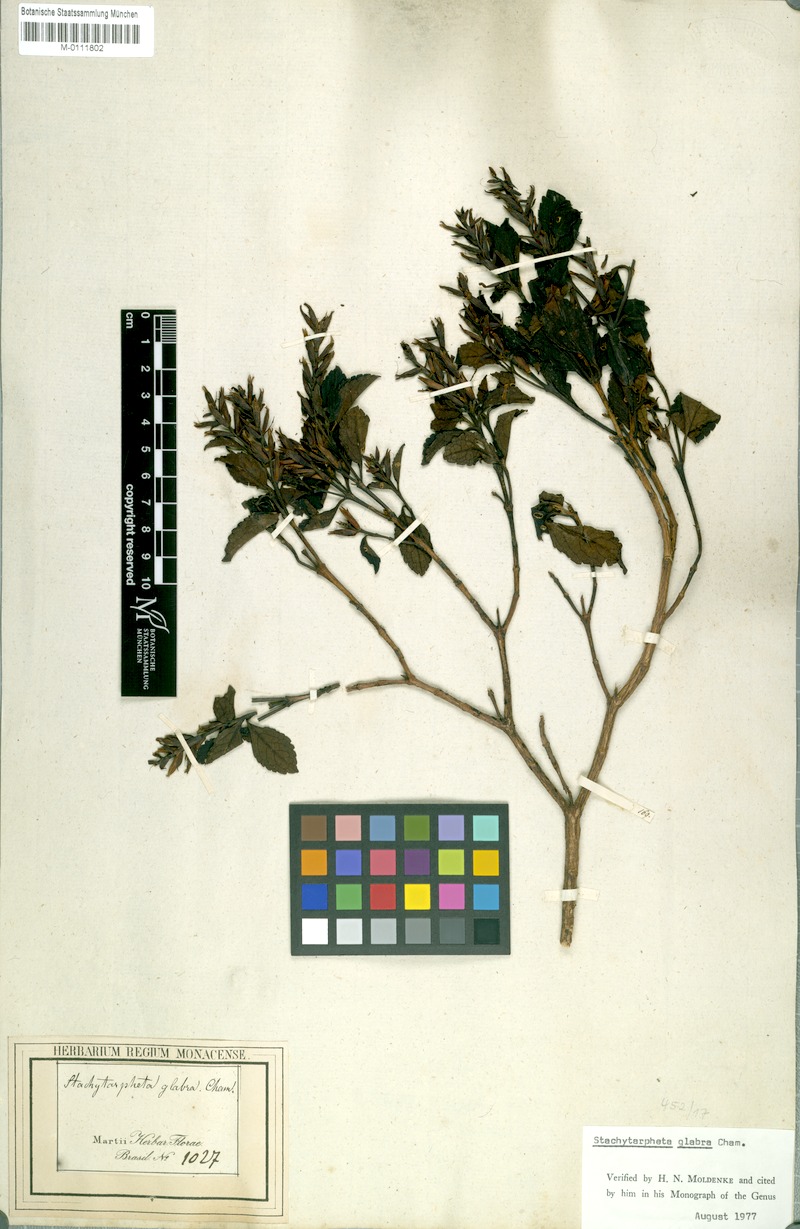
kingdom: Plantae
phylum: Tracheophyta
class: Magnoliopsida
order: Lamiales
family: Verbenaceae
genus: Stachytarpheta
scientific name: Stachytarpheta glabra
